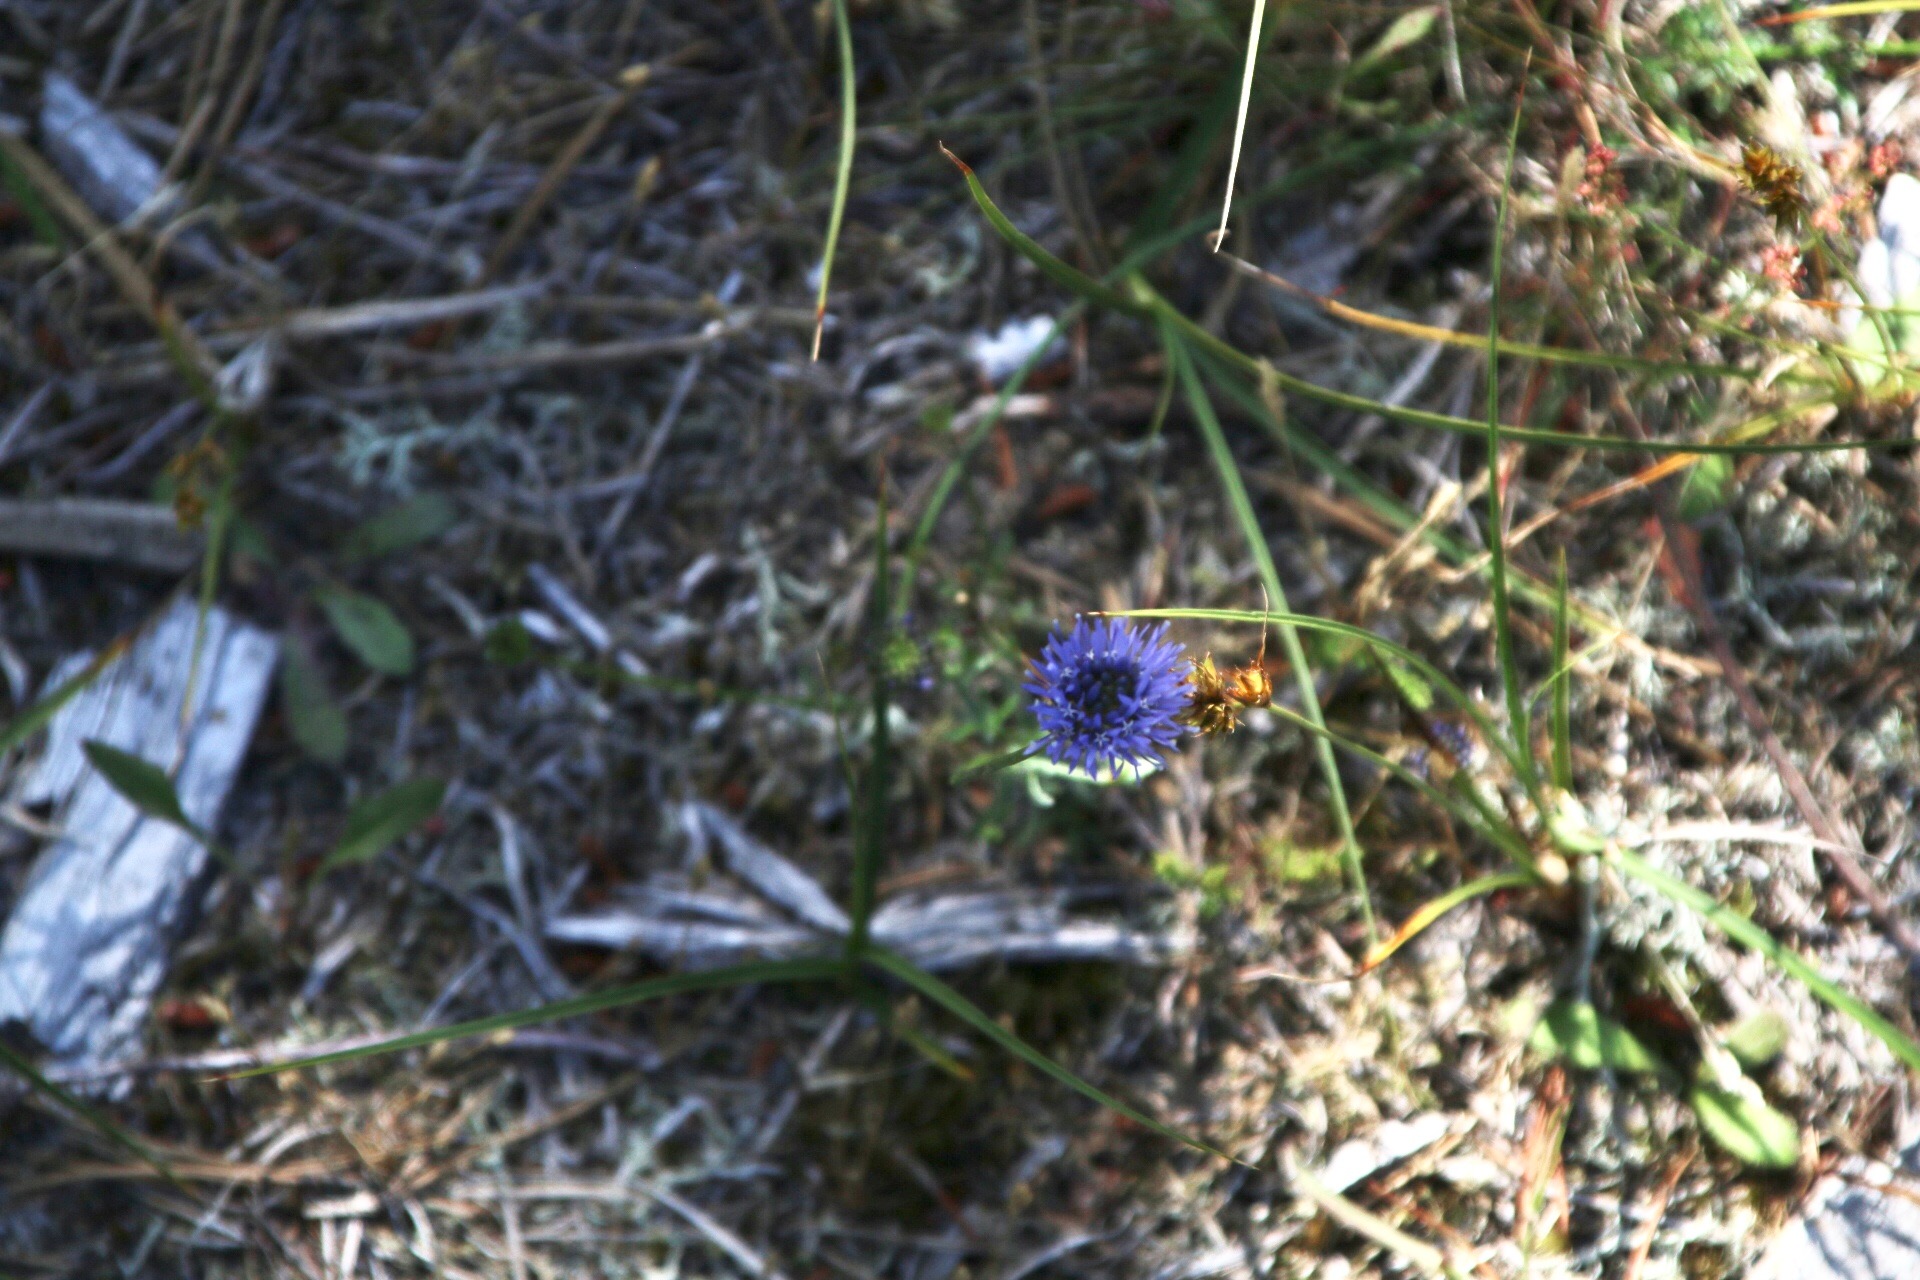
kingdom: Plantae
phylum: Tracheophyta
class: Magnoliopsida
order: Asterales
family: Campanulaceae
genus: Jasione
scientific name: Jasione montana
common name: Blåmunke
